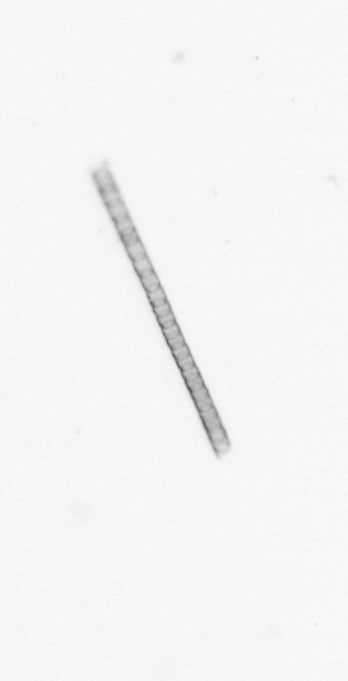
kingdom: Chromista
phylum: Ochrophyta
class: Bacillariophyceae
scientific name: Bacillariophyceae
